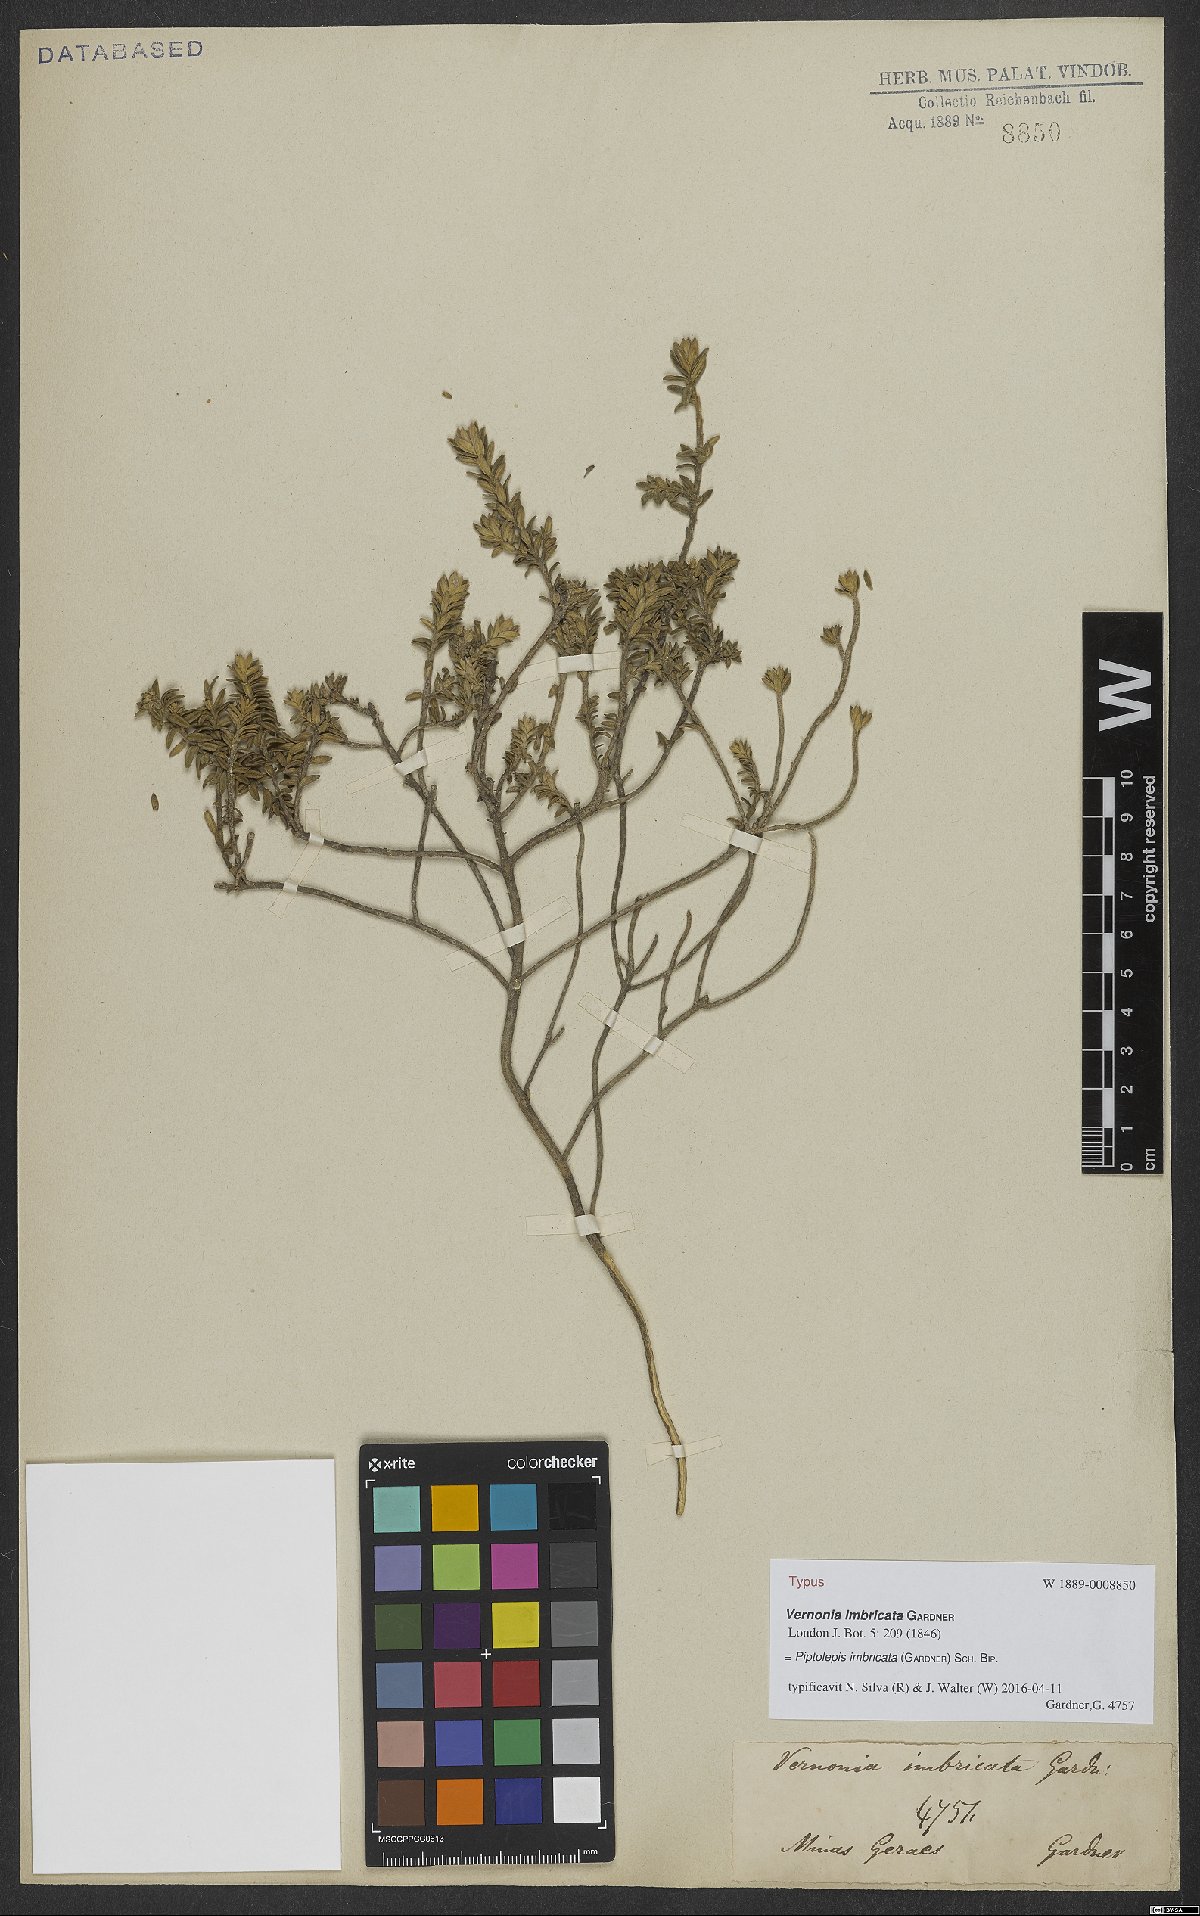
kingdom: Plantae
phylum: Tracheophyta
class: Magnoliopsida
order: Asterales
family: Asteraceae
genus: Piptolepis
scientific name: Piptolepis imbricata
